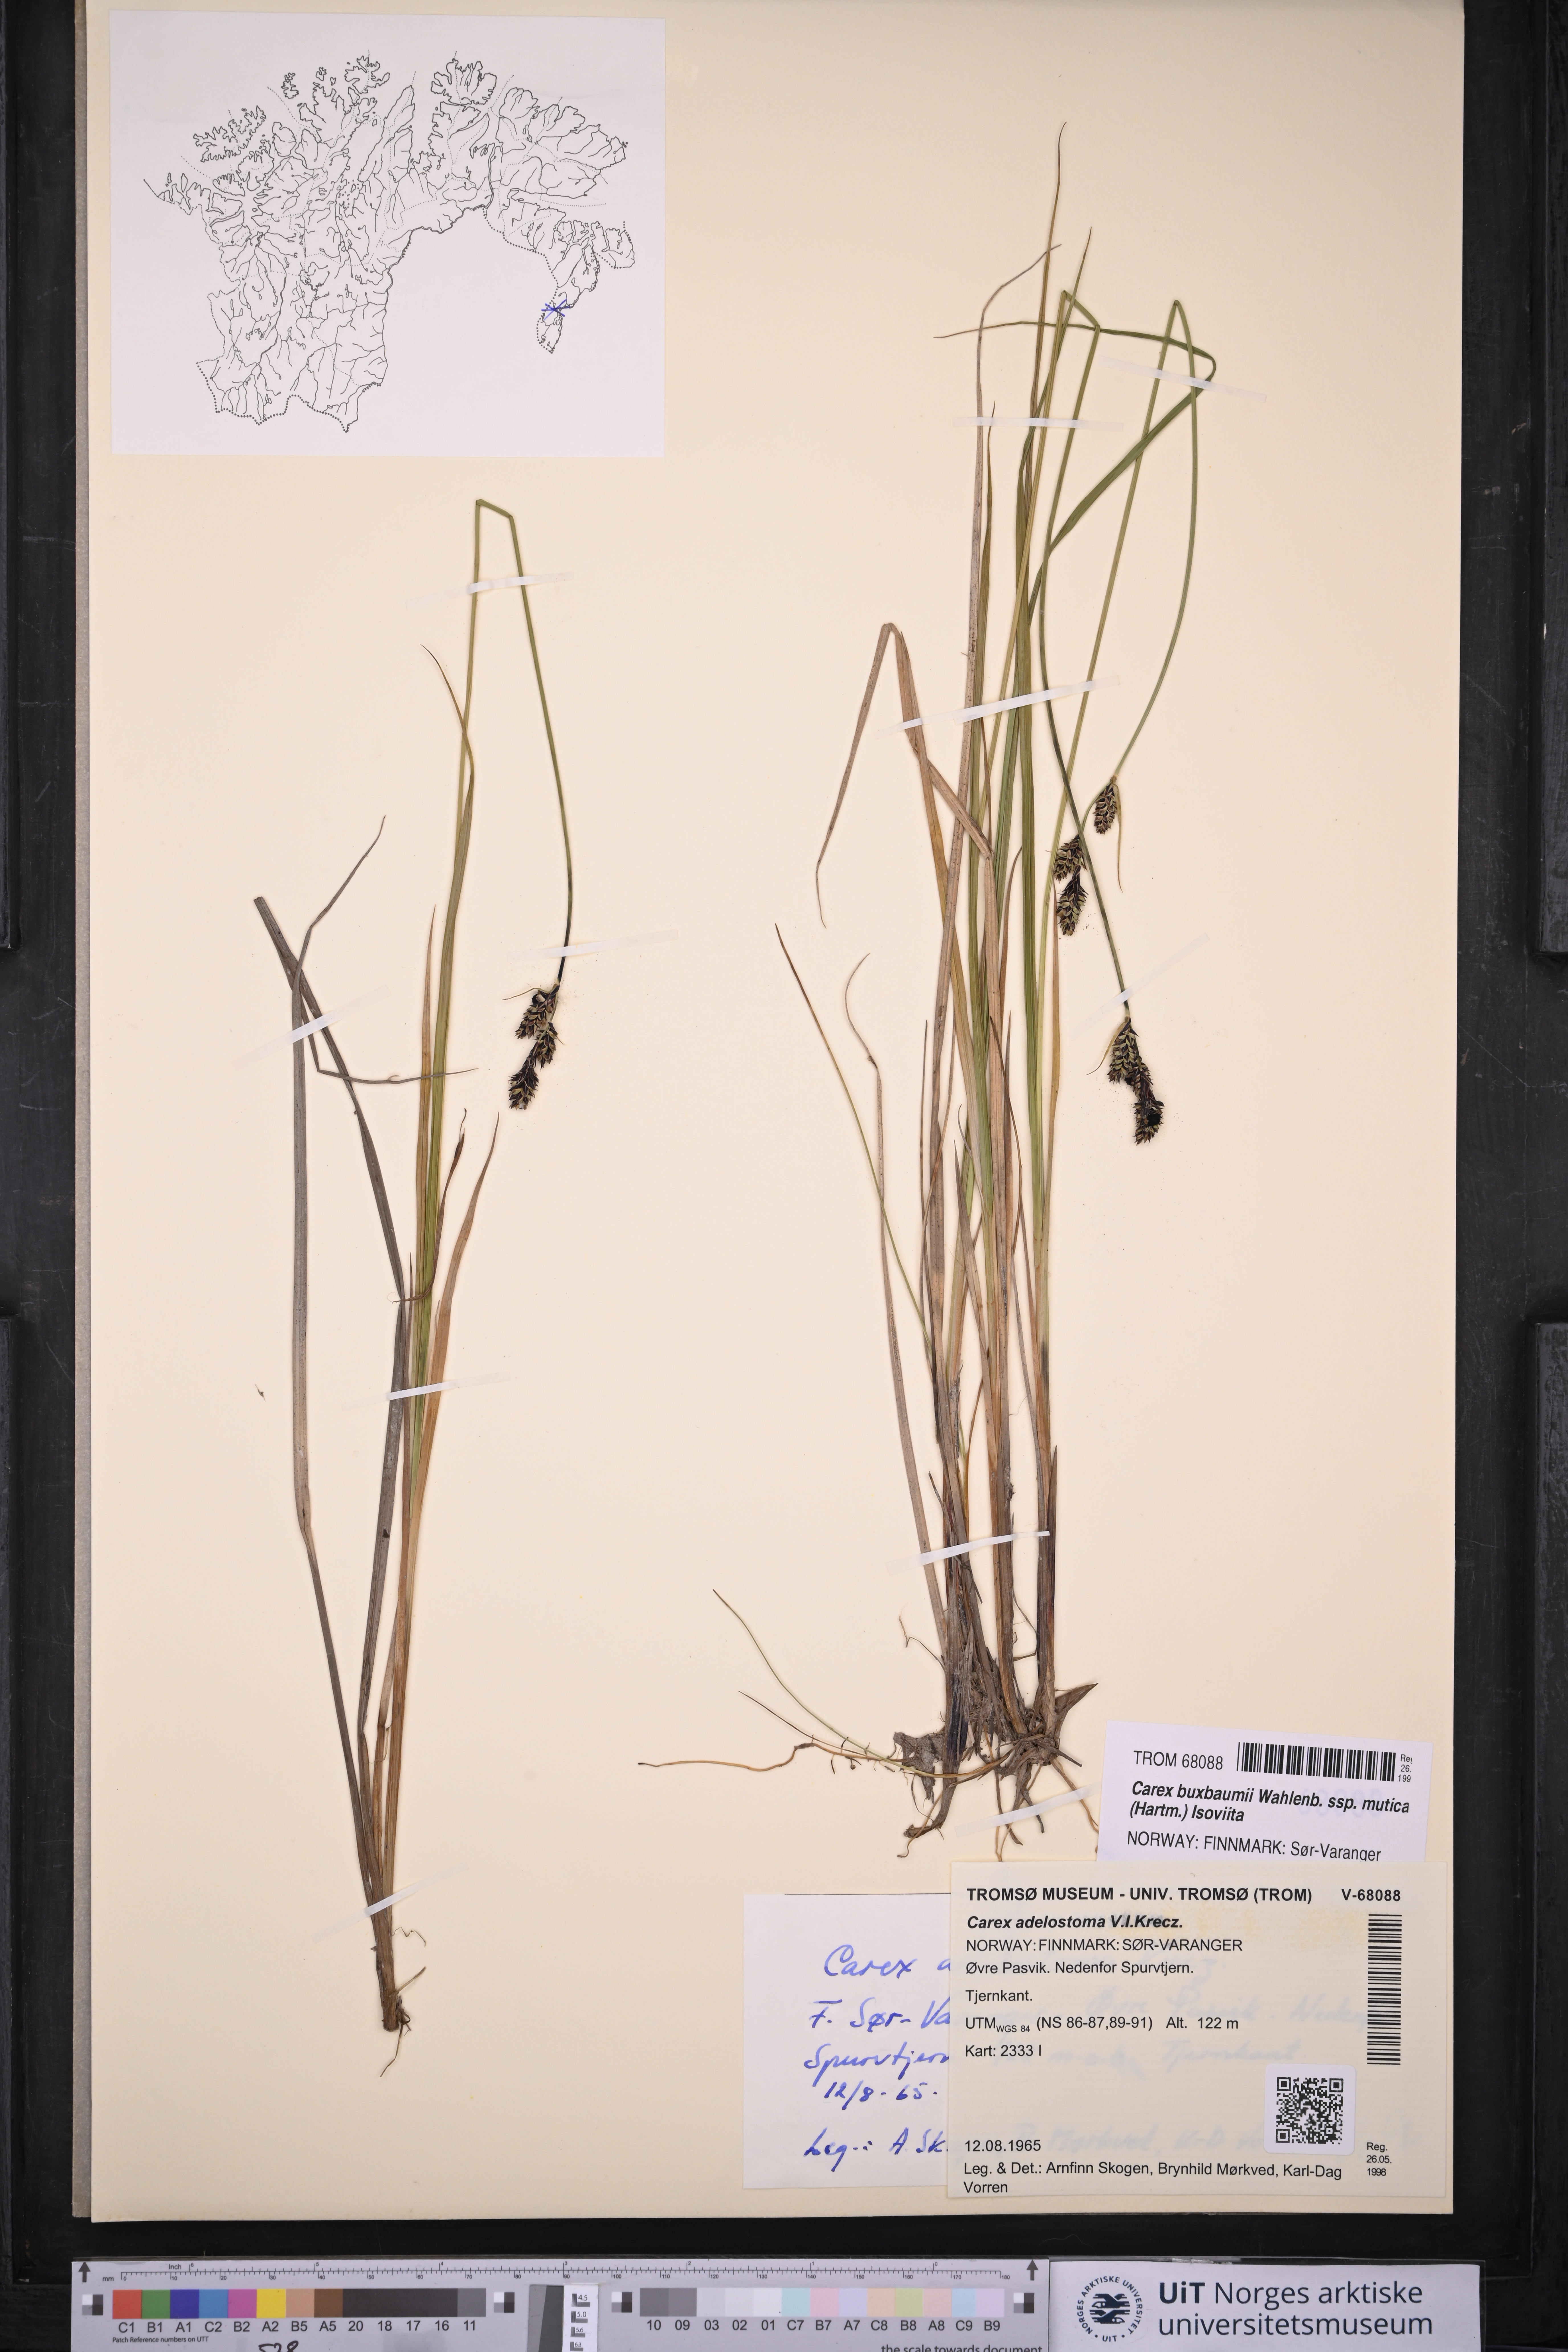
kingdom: Plantae
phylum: Tracheophyta
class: Liliopsida
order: Poales
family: Cyperaceae
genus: Carex
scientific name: Carex adelostoma
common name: Circumpolar sedge
